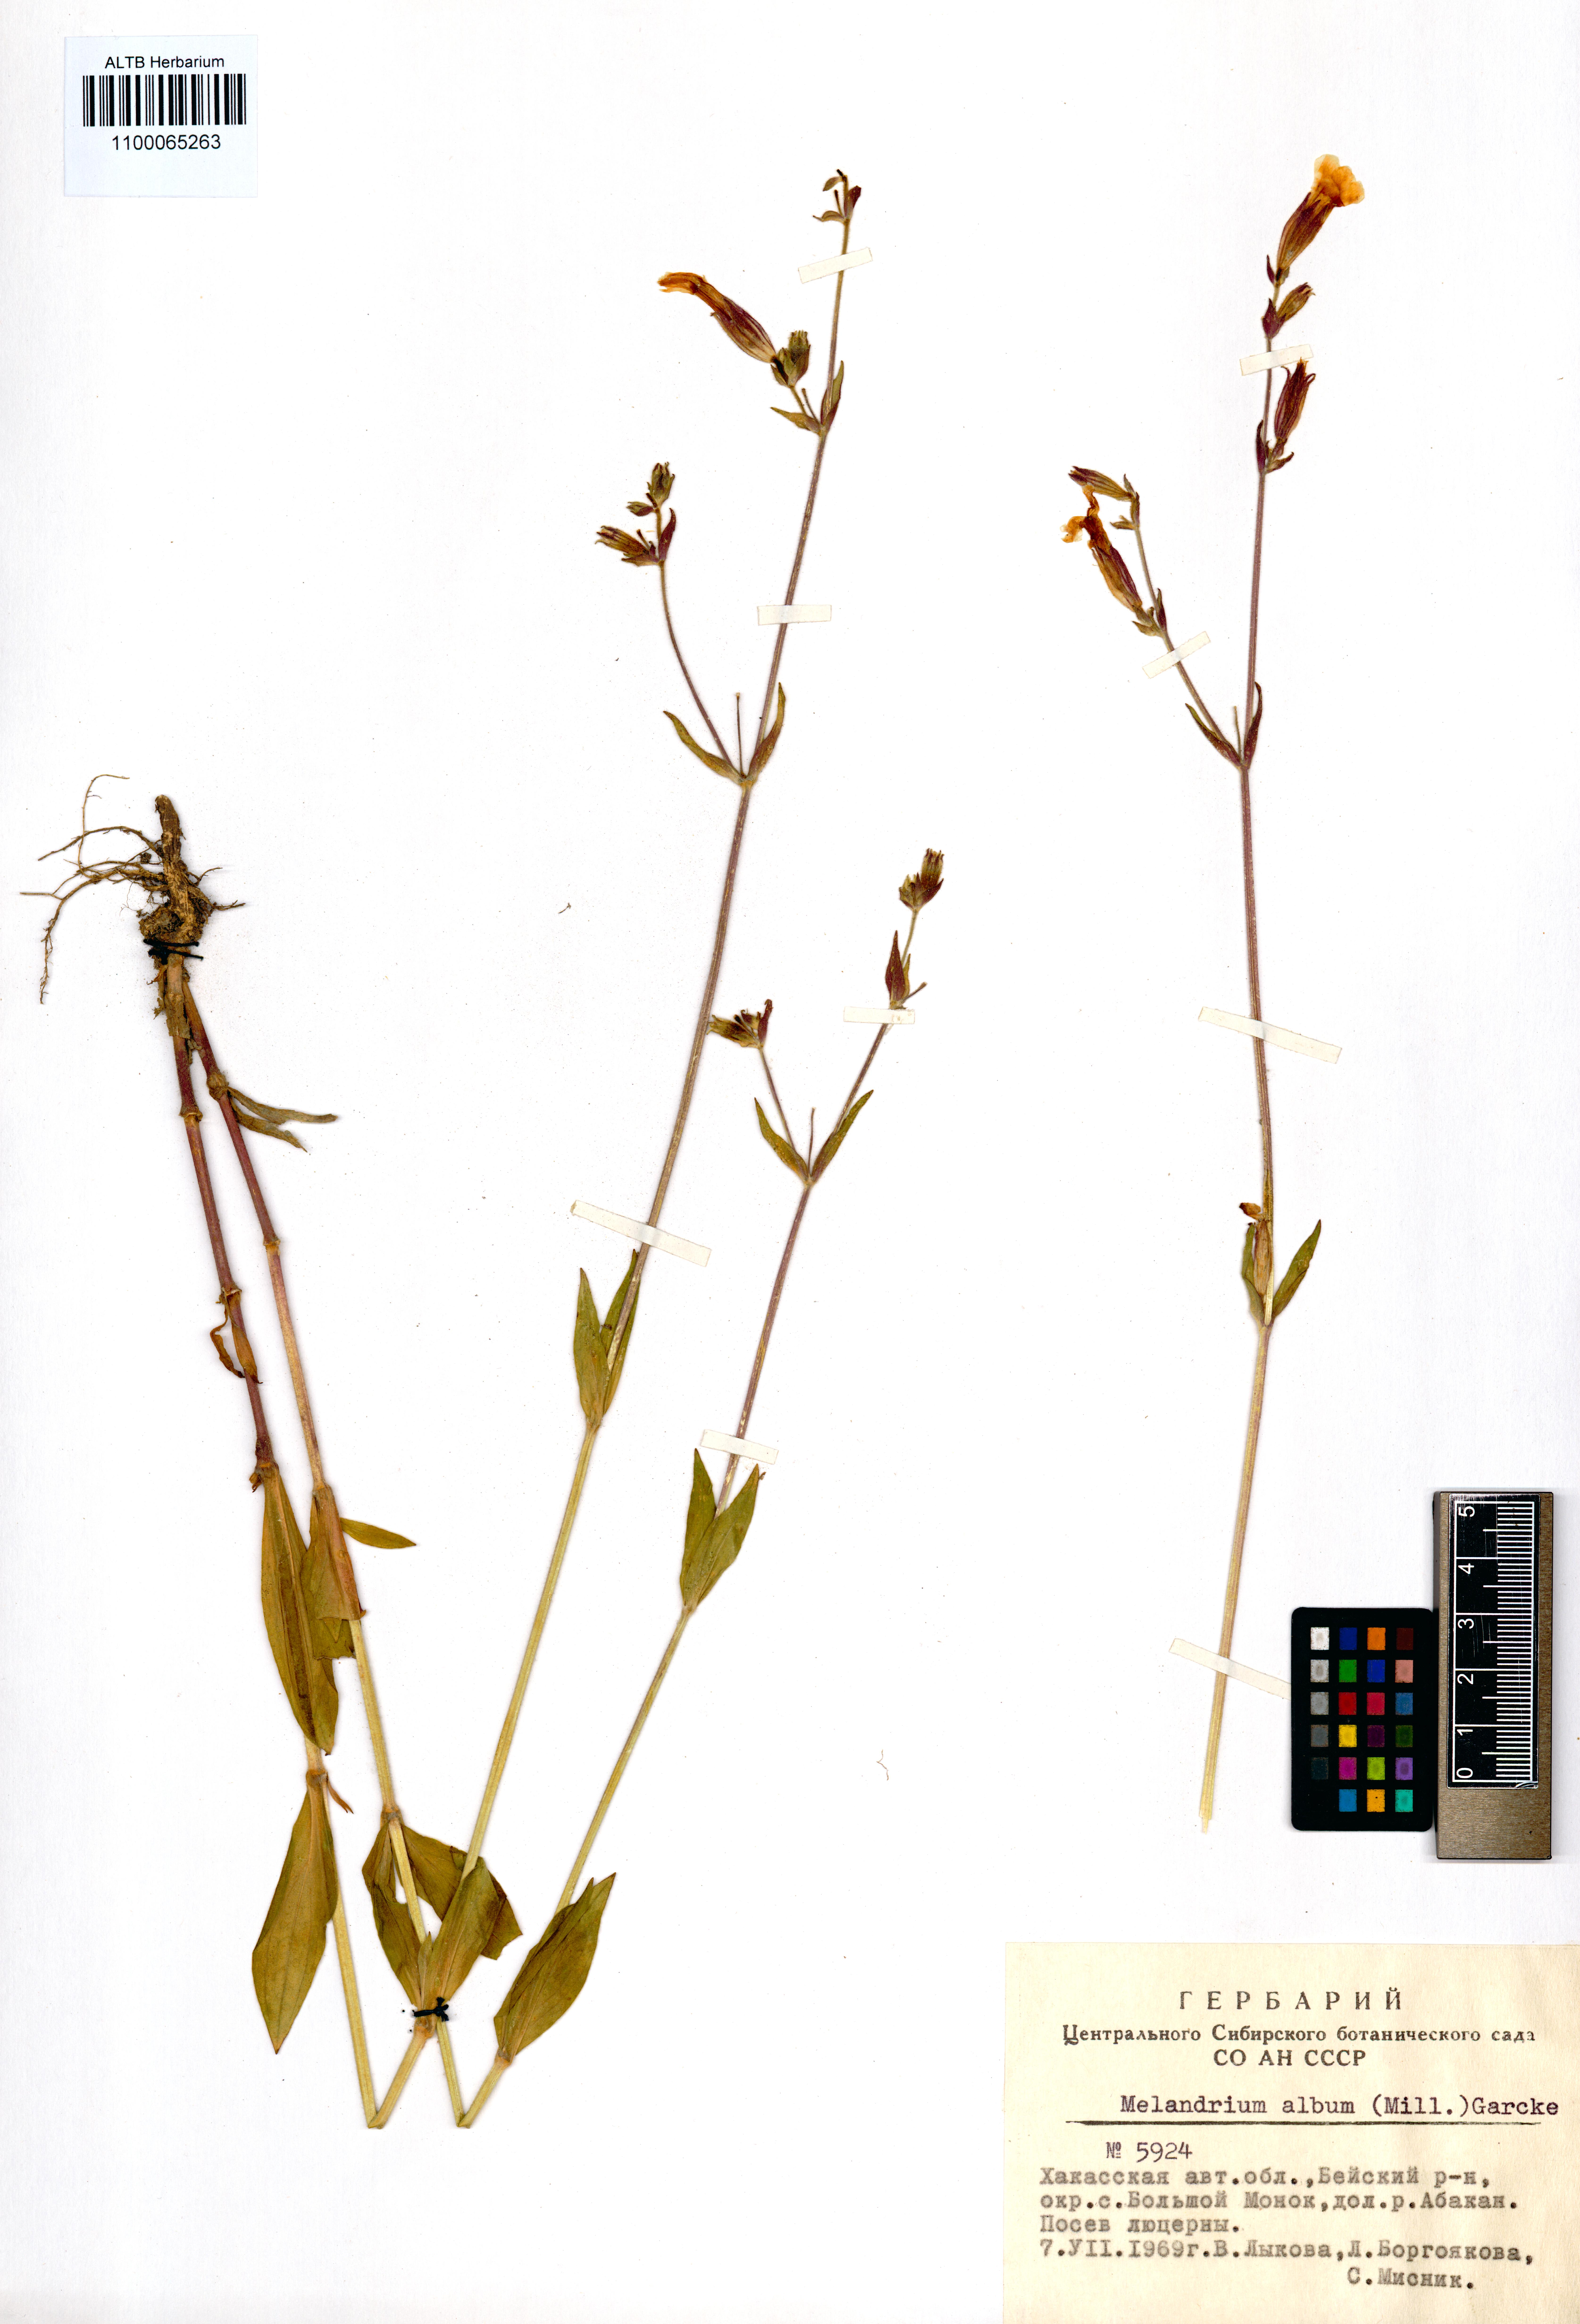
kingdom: Plantae
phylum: Tracheophyta
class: Magnoliopsida
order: Caryophyllales
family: Caryophyllaceae
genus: Silene
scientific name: Silene latifolia
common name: White campion
